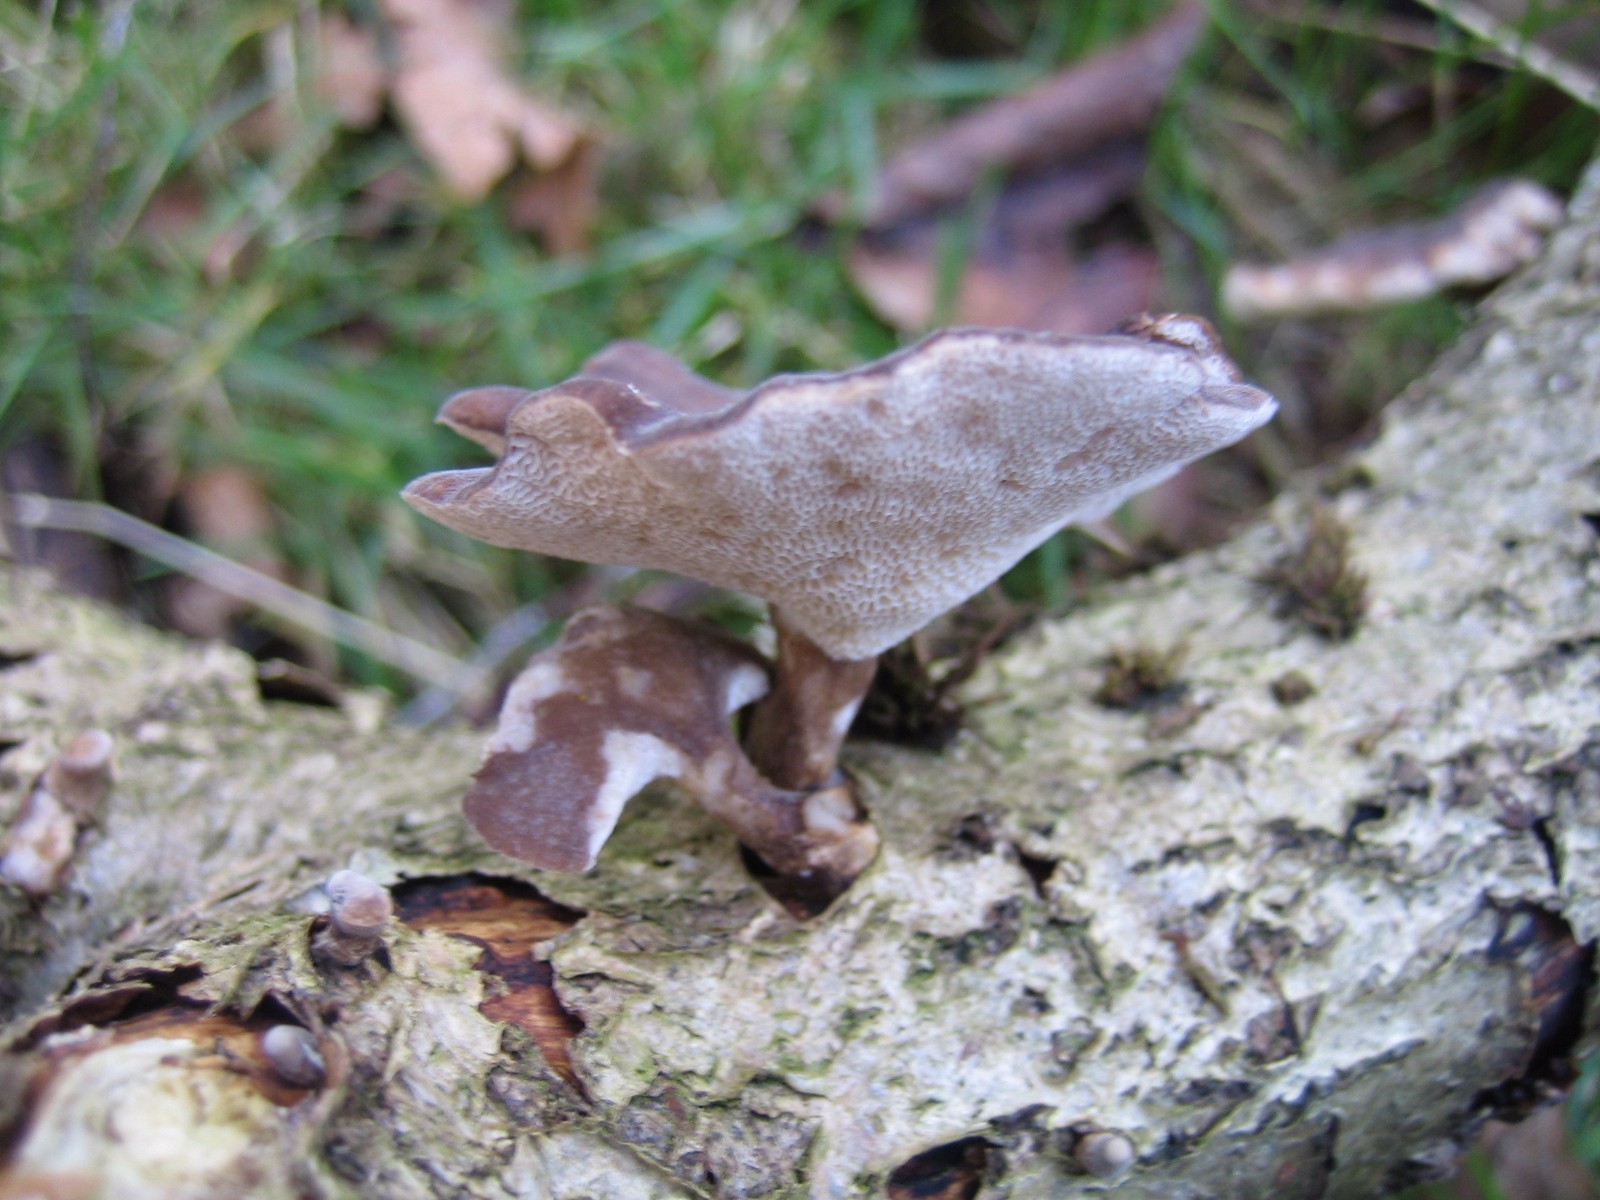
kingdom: Fungi
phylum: Basidiomycota
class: Agaricomycetes
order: Polyporales
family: Polyporaceae
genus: Lentinus
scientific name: Lentinus brumalis
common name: vinter-stilkporesvamp
